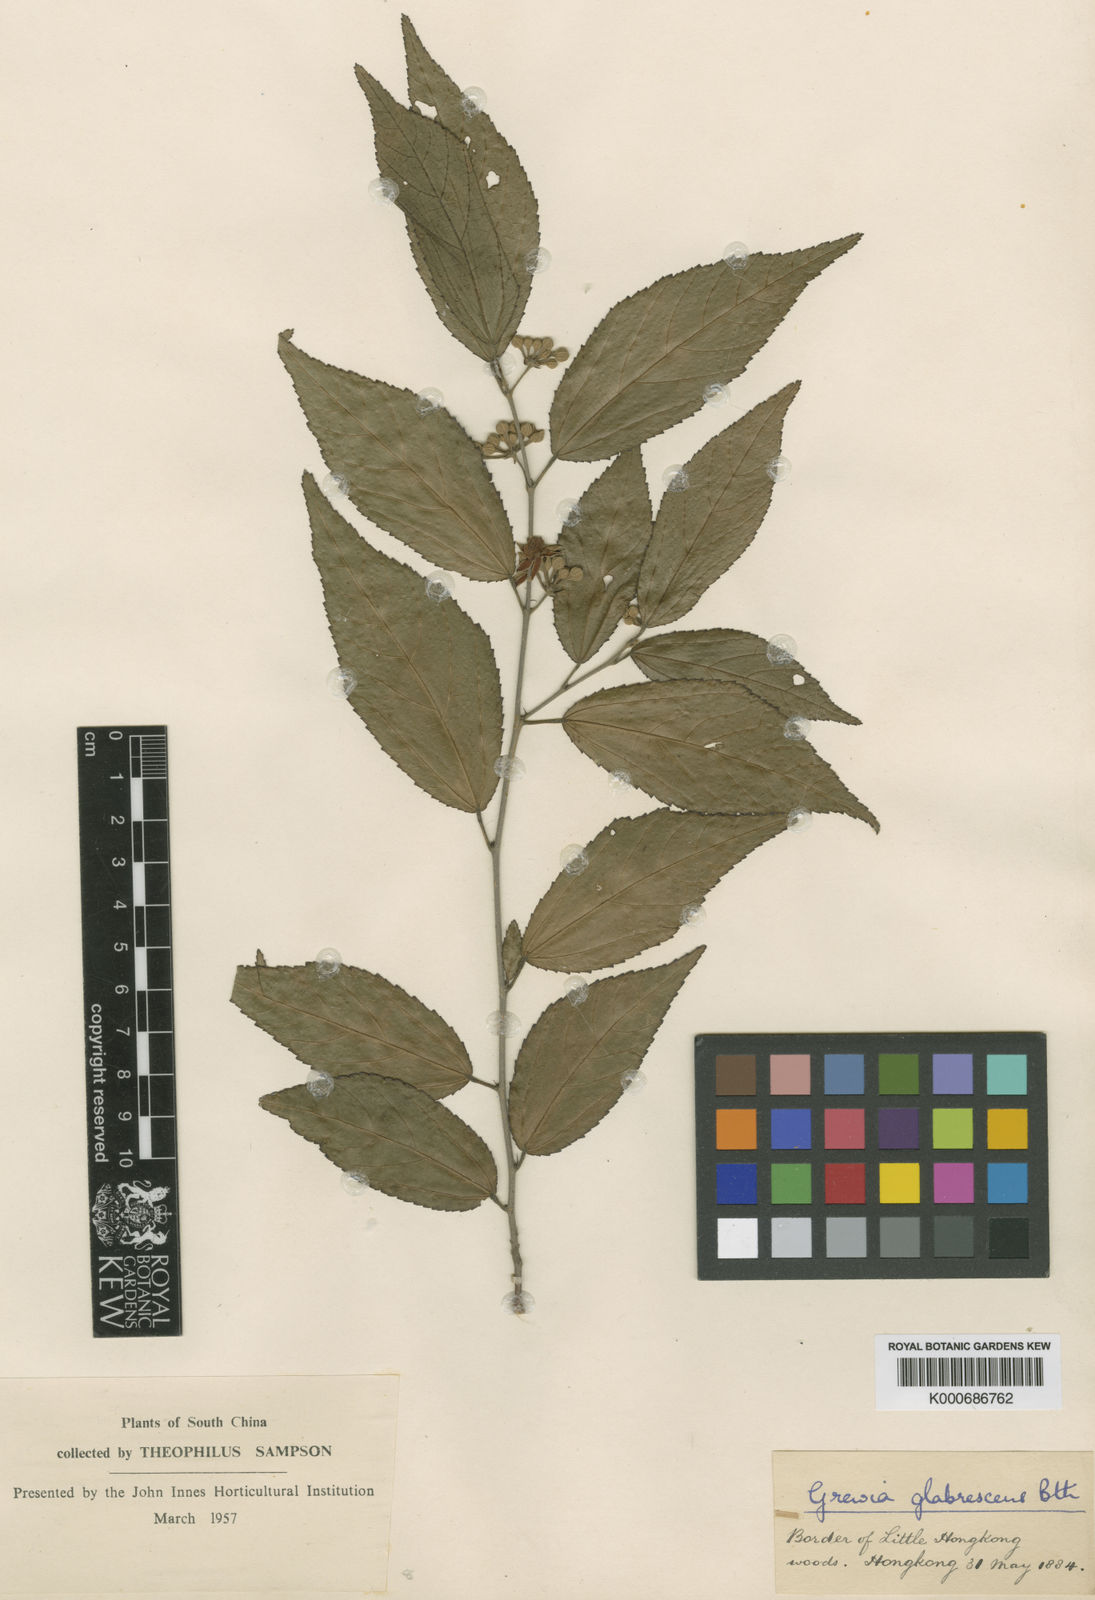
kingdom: Plantae
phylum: Tracheophyta
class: Magnoliopsida
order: Malvales
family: Malvaceae
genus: Grewia
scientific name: Grewia biloba
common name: Bilobed grewia
